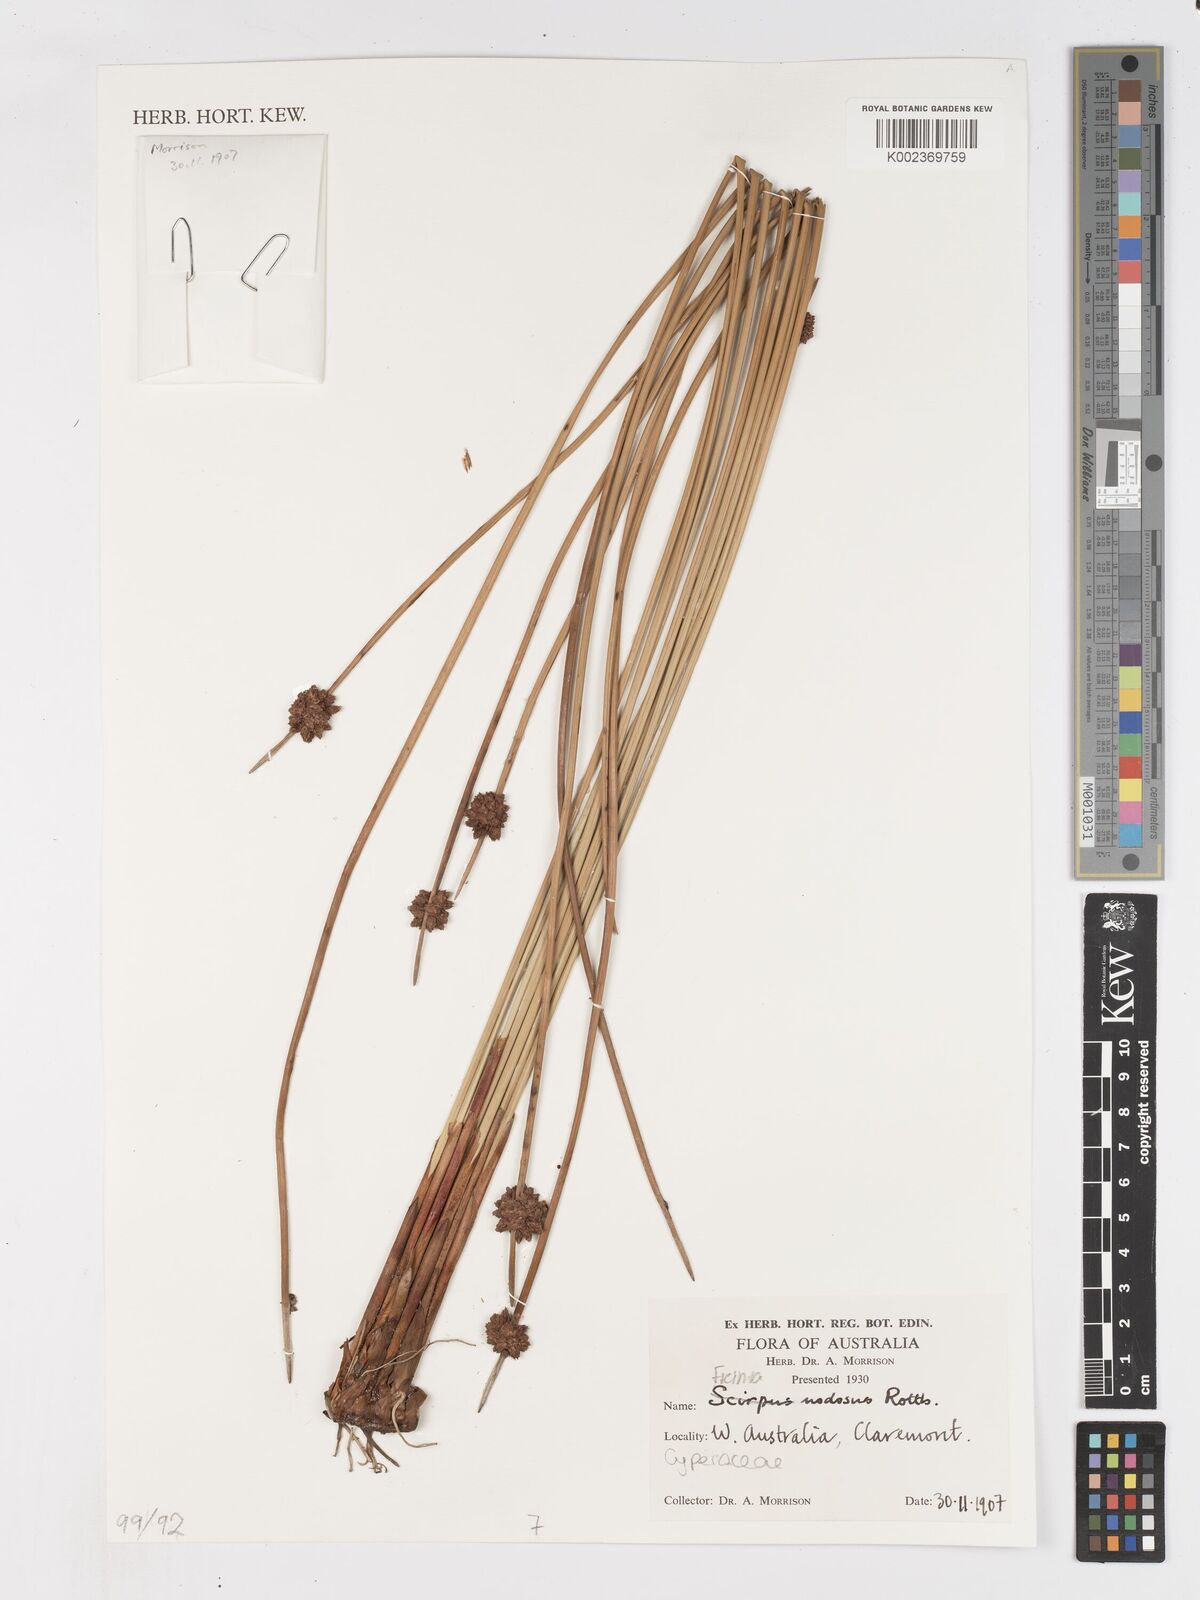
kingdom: Plantae
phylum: Tracheophyta
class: Liliopsida
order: Poales
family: Cyperaceae
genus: Ficinia
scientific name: Ficinia nodosa
